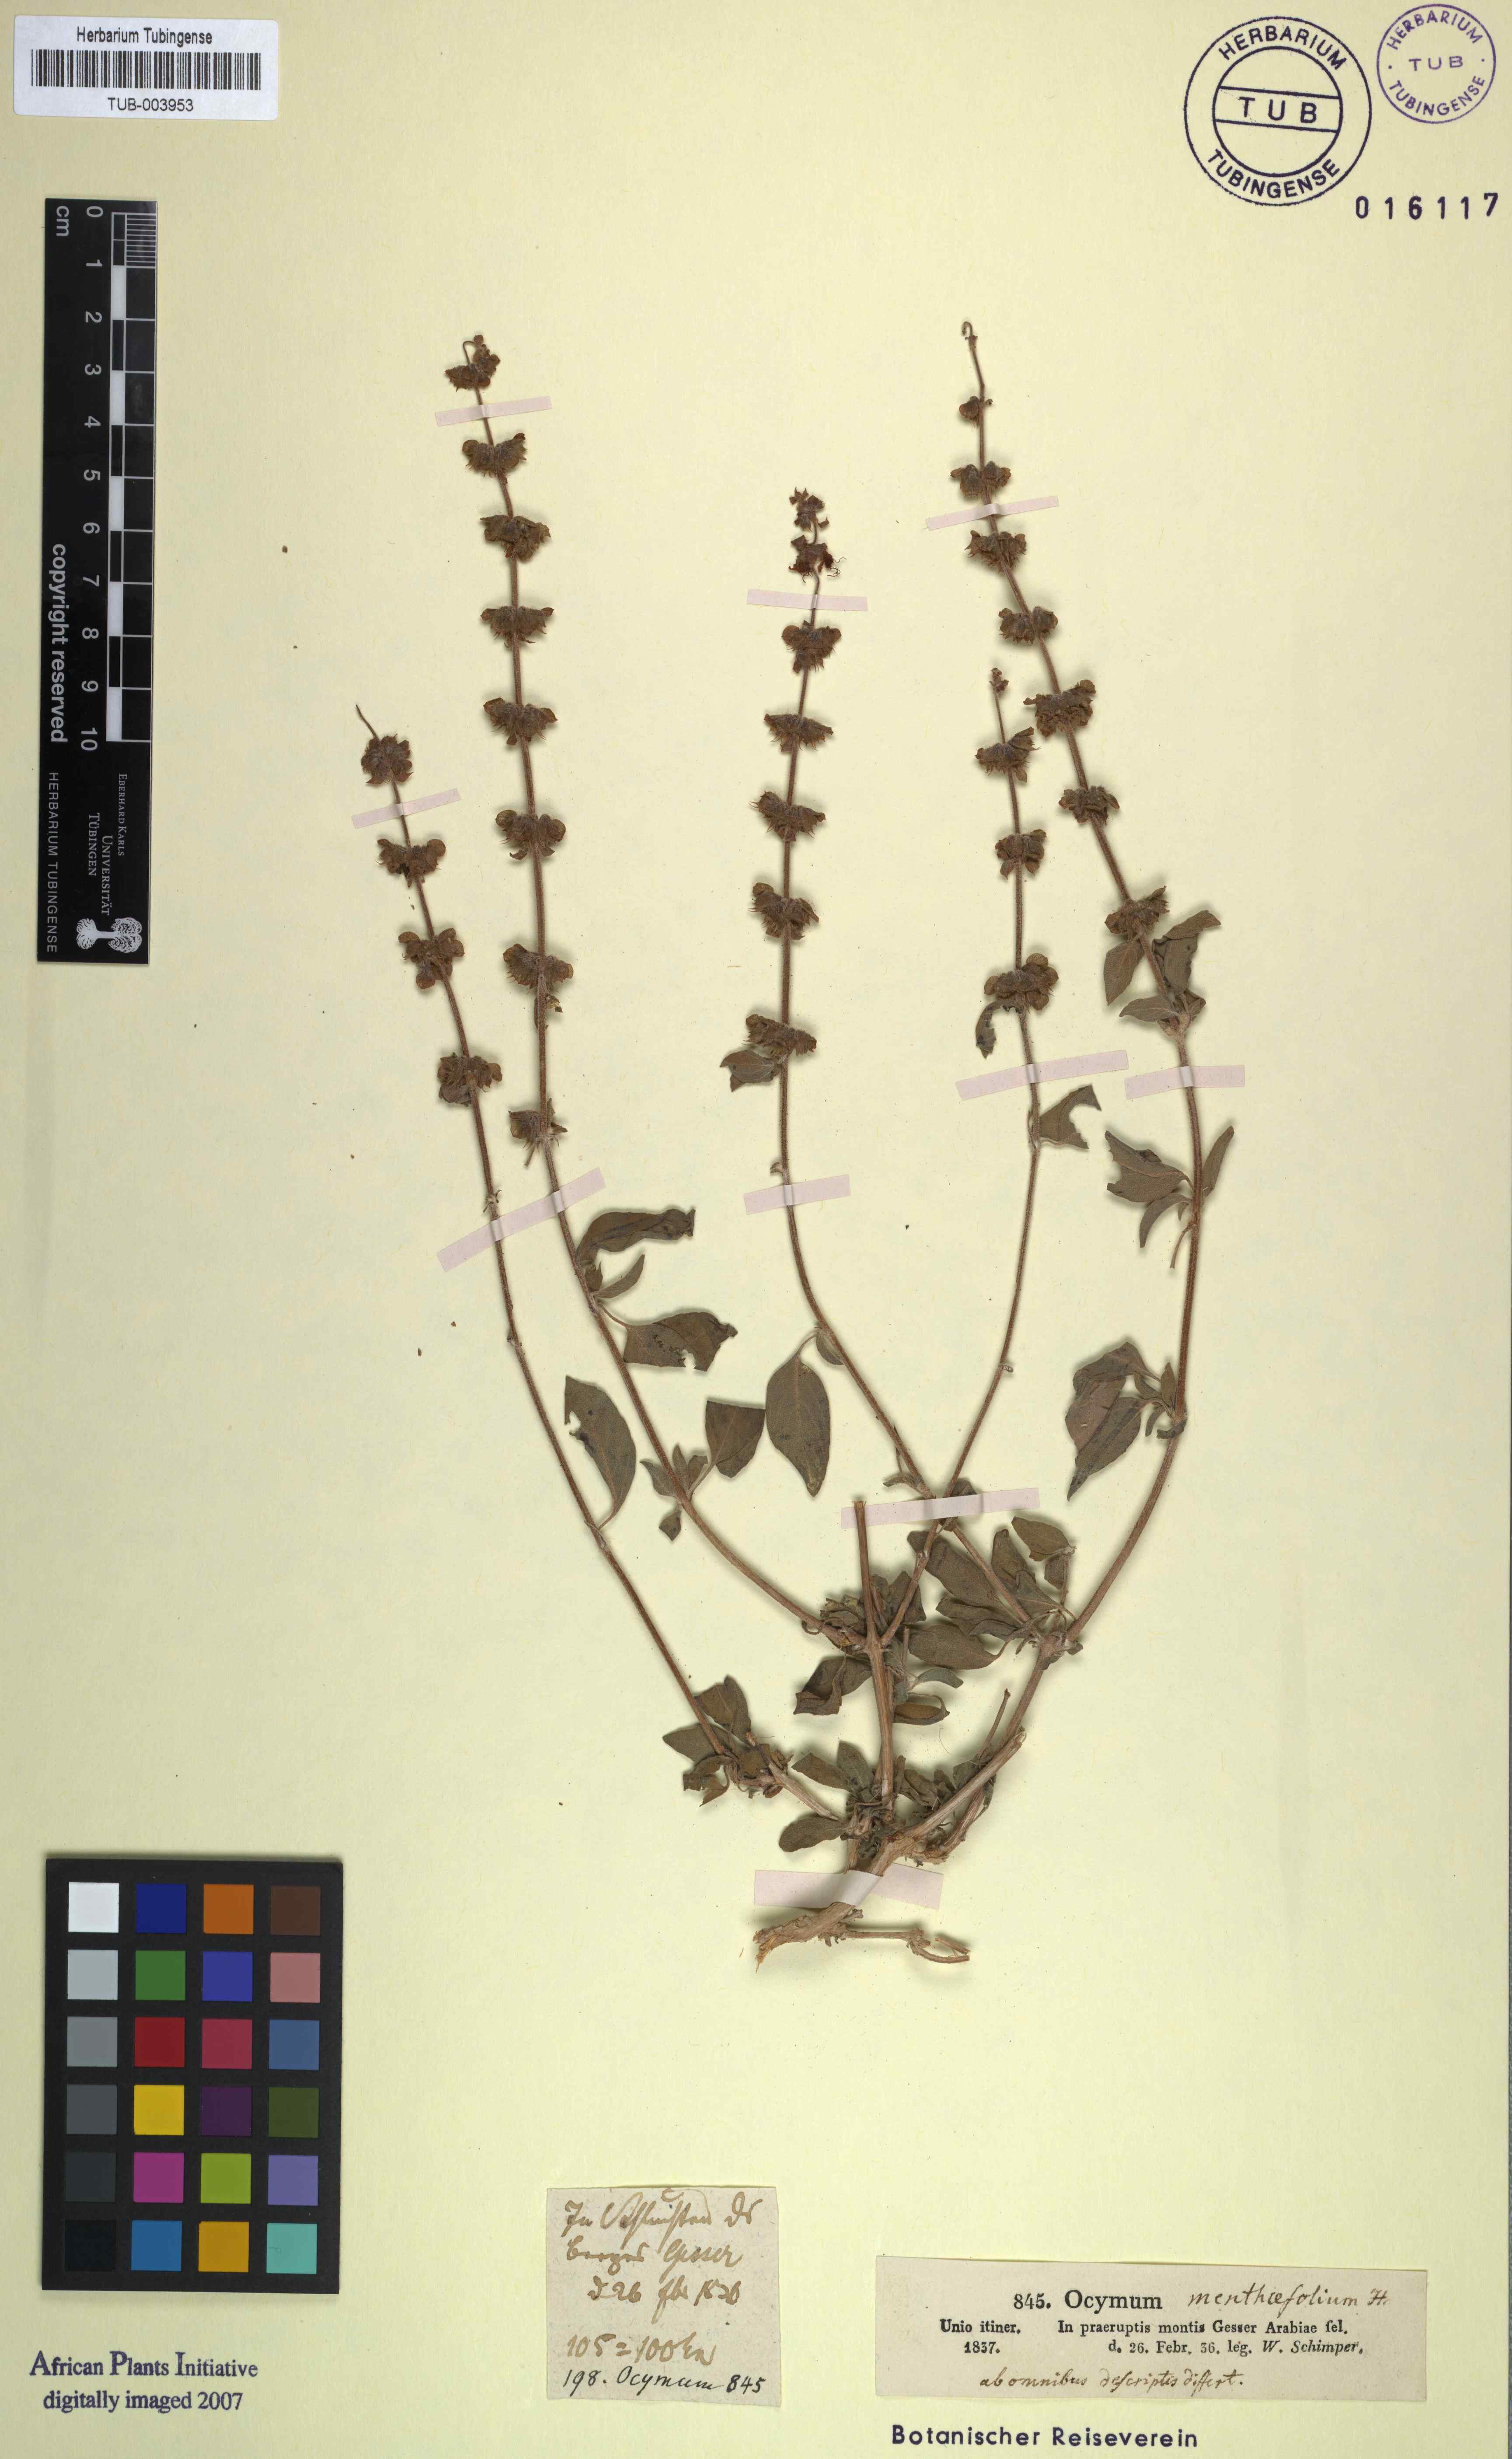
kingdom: Plantae
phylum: Tracheophyta
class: Magnoliopsida
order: Lamiales
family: Lamiaceae
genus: Ocimum
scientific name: Ocimum forskoelei
